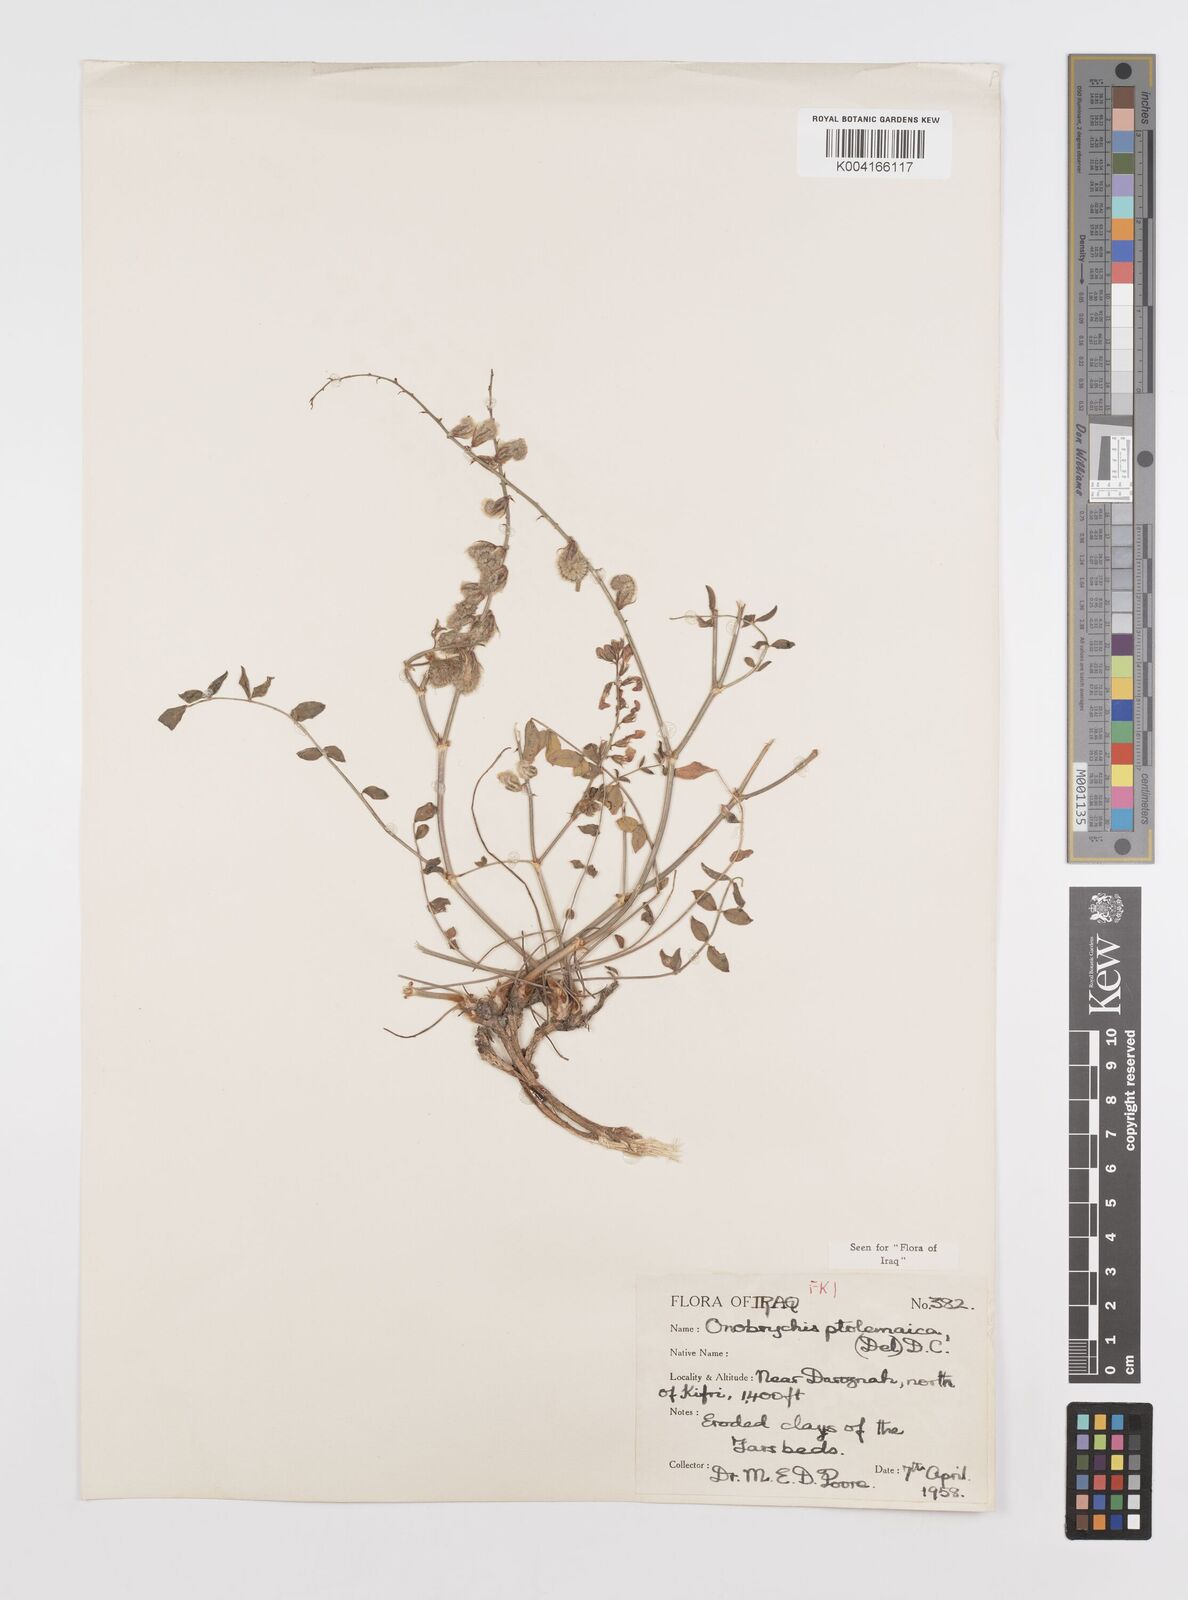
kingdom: Plantae
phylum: Tracheophyta
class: Magnoliopsida
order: Fabales
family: Fabaceae
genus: Onobrychis
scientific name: Onobrychis ptolemaica
